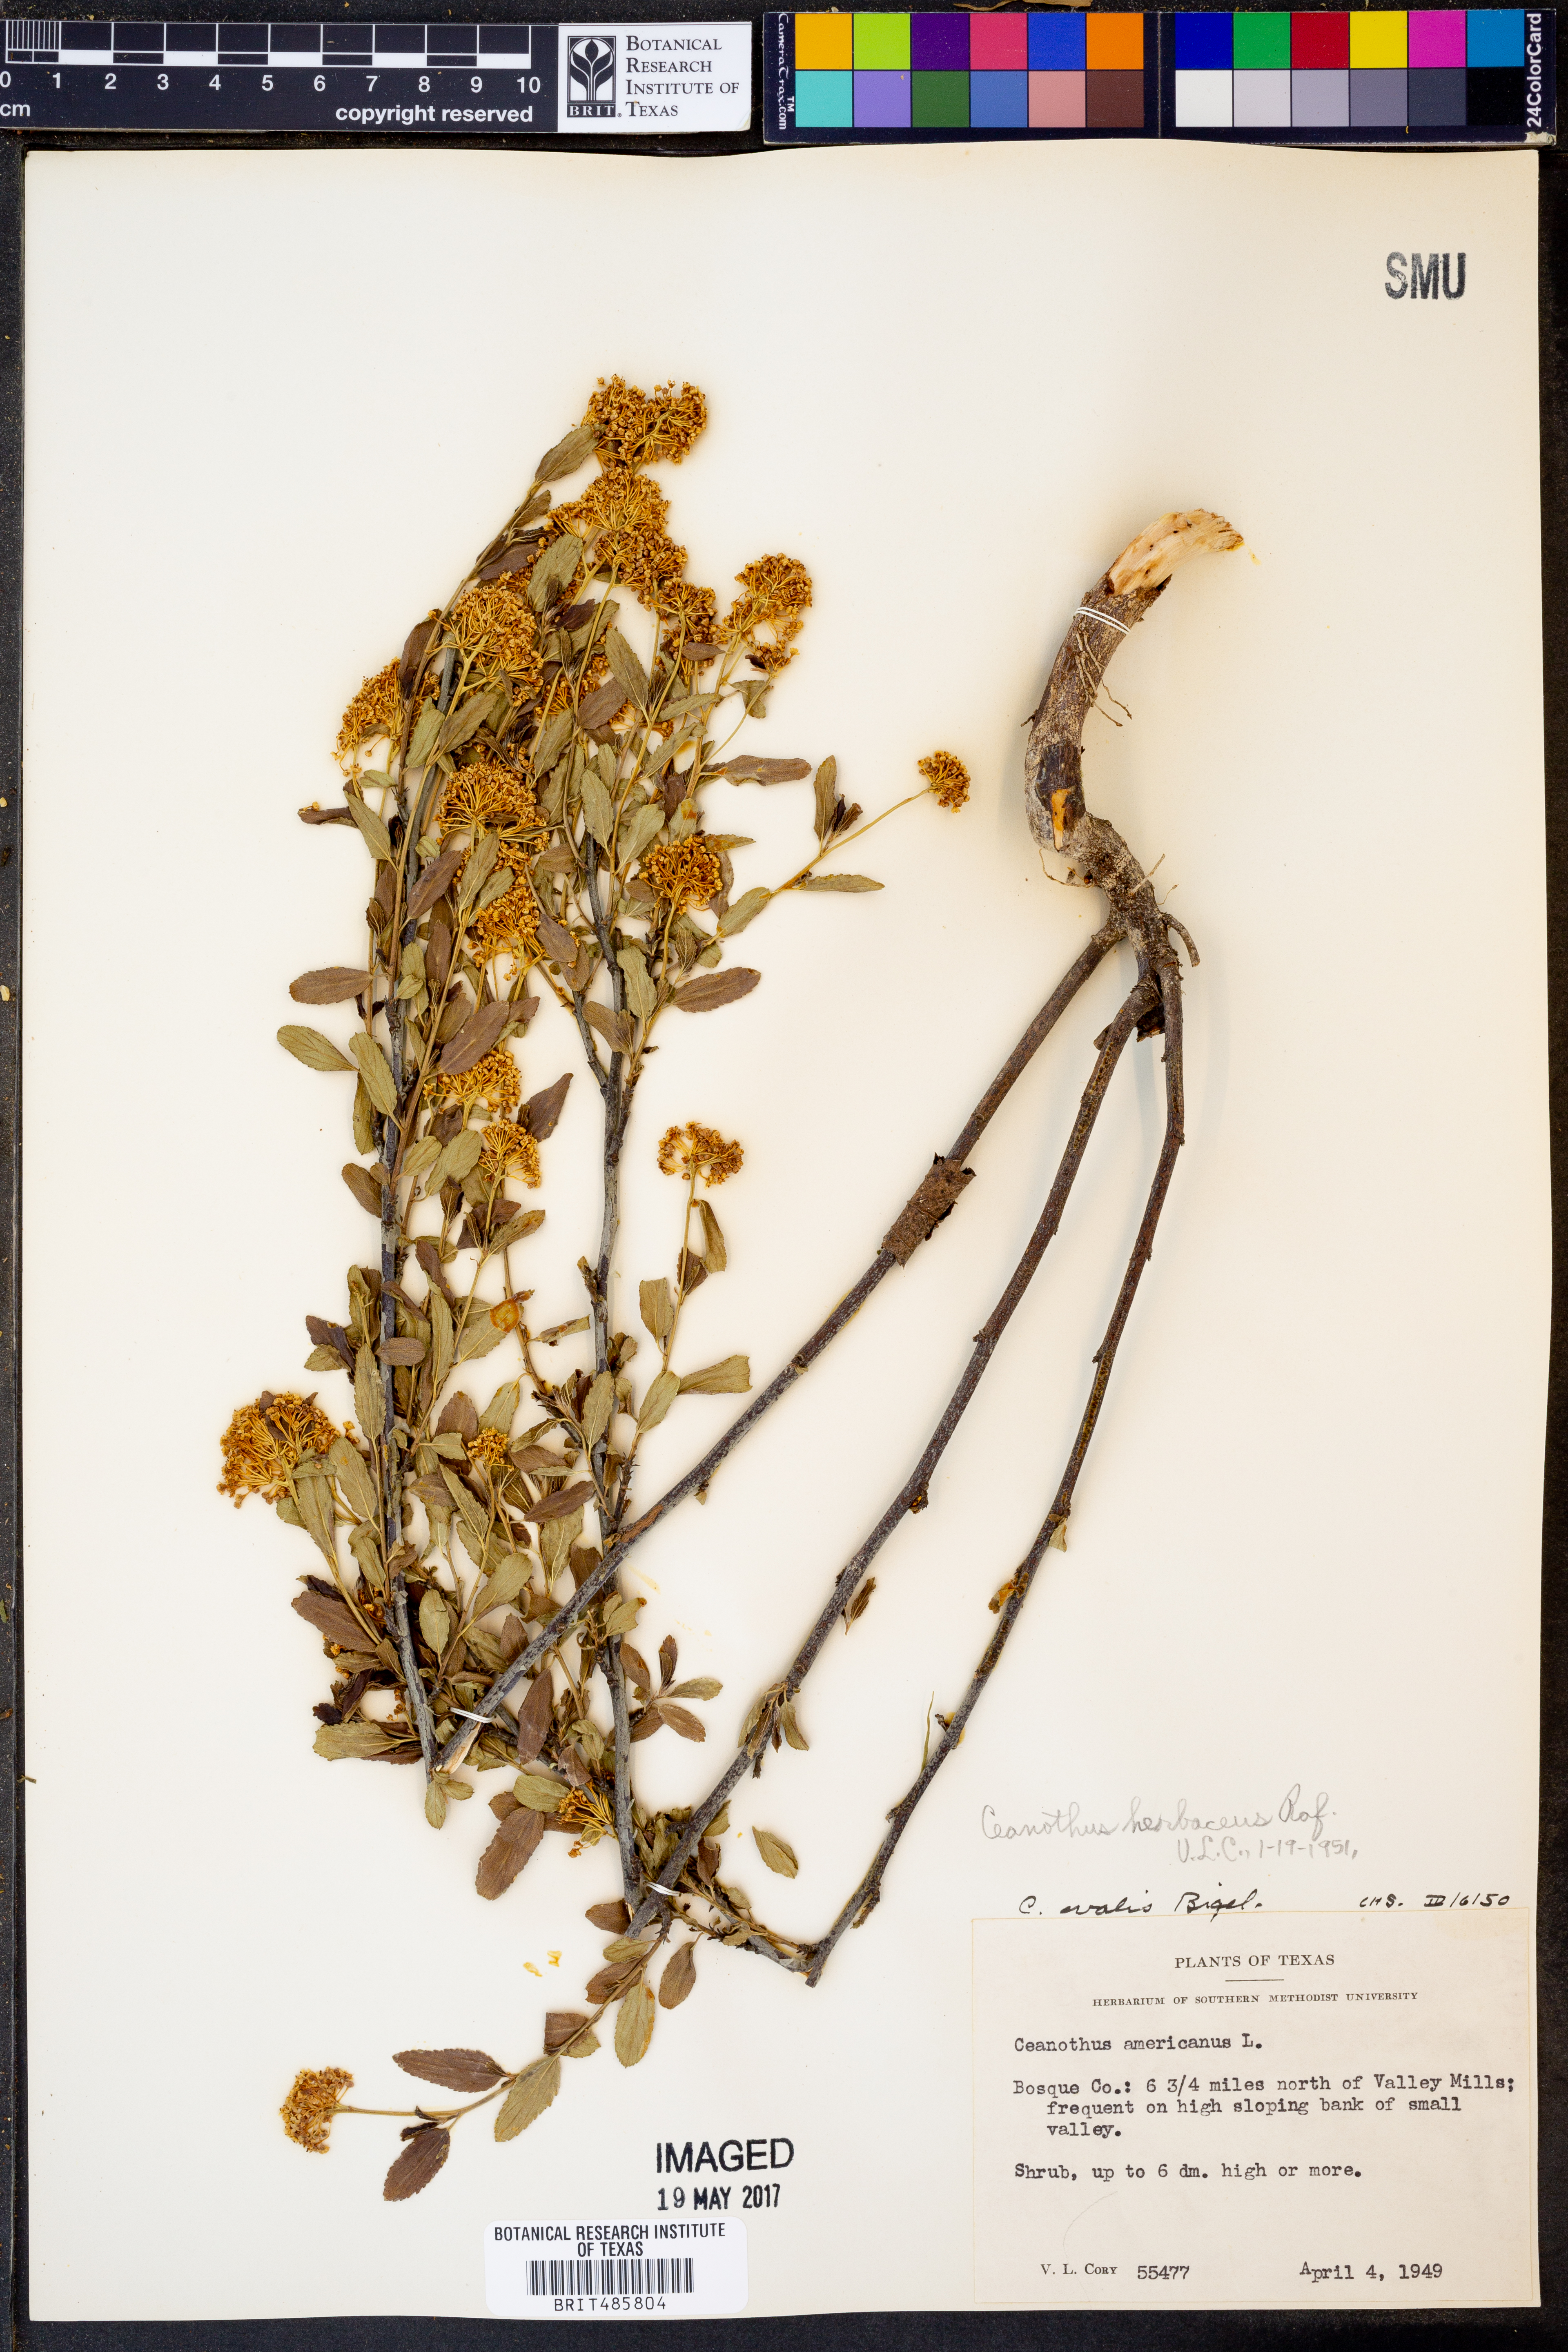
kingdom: Plantae
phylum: Tracheophyta
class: Magnoliopsida
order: Rosales
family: Rhamnaceae
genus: Ceanothus
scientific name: Ceanothus herbaceus
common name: Inland ceanothus
